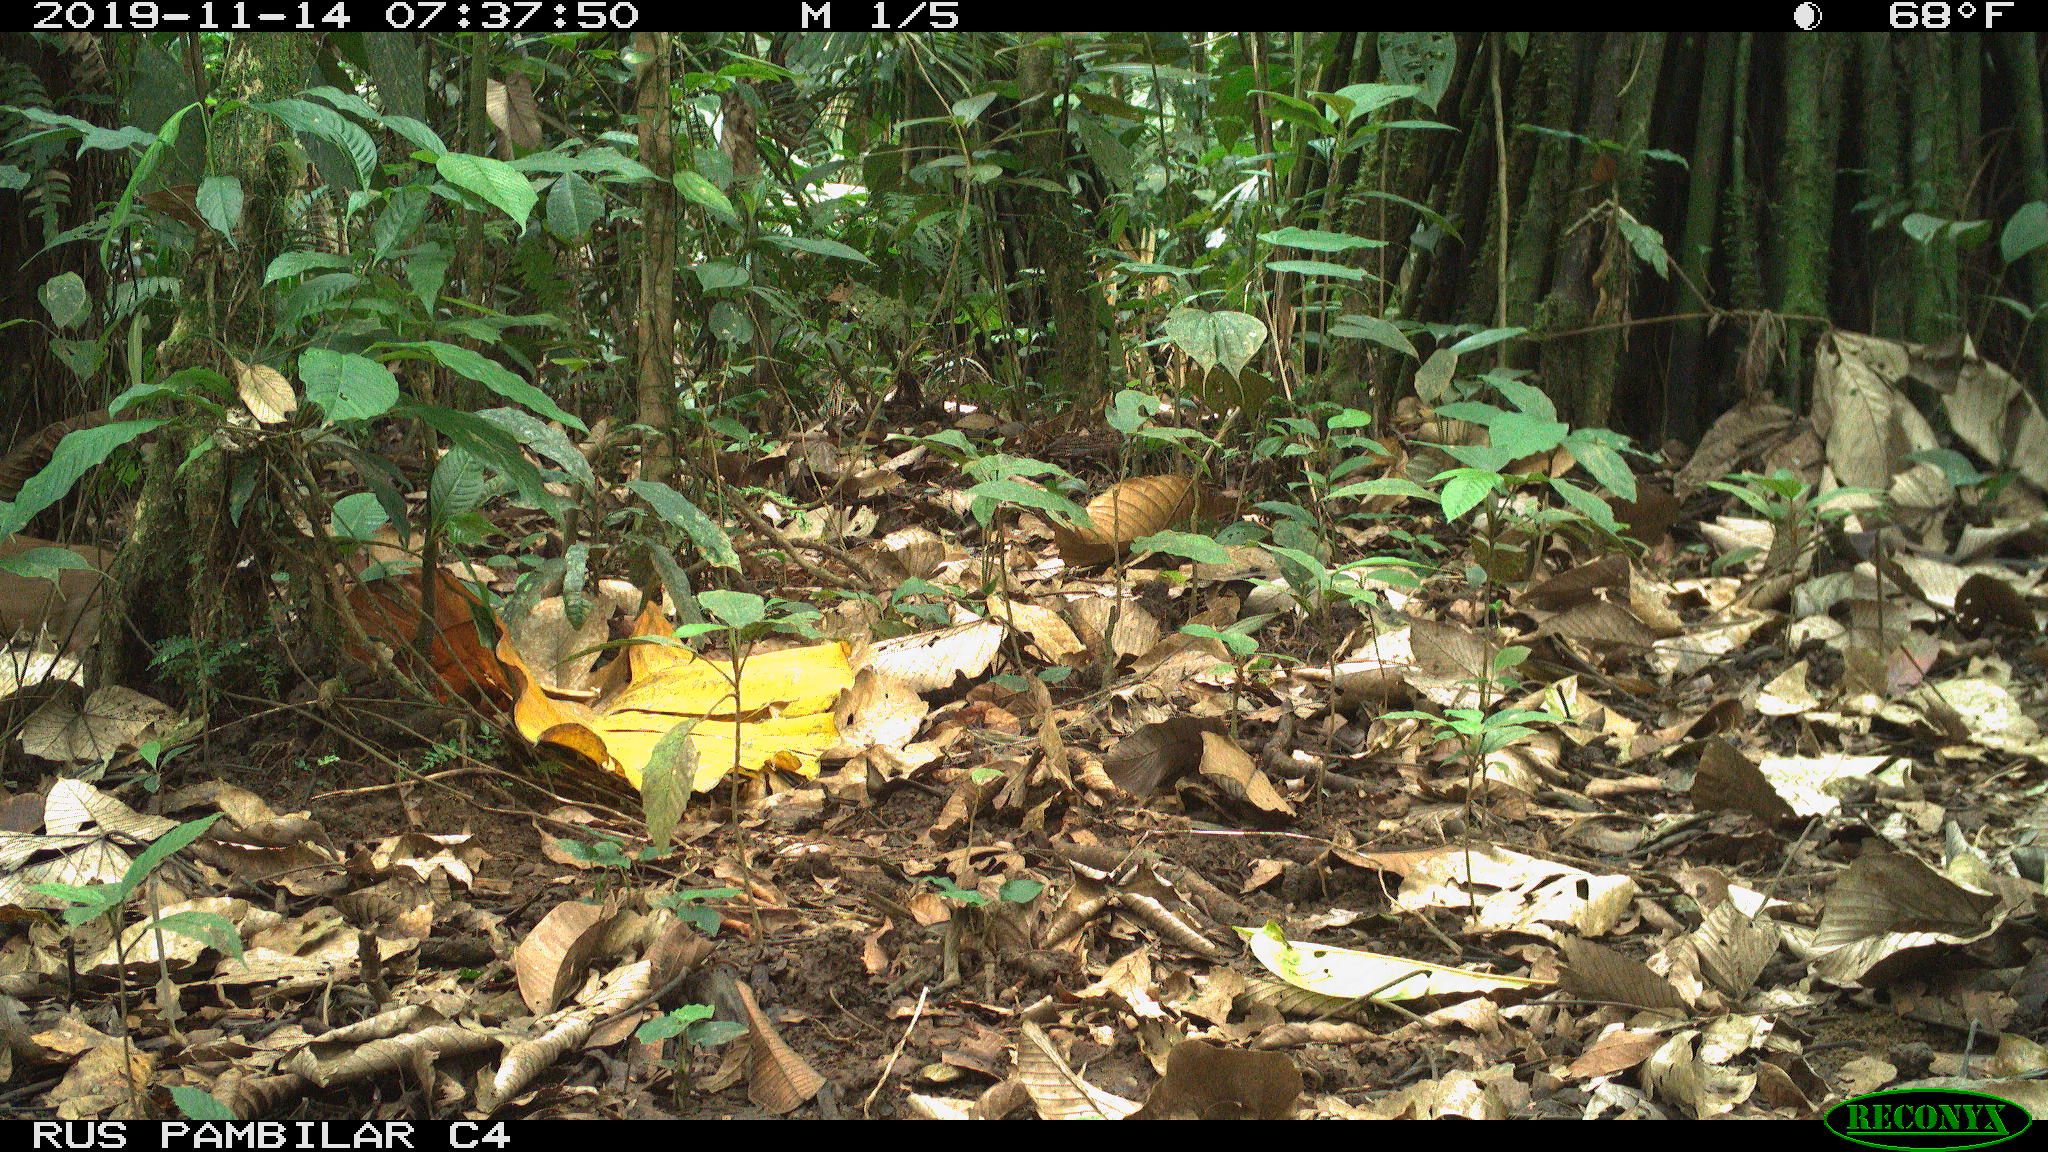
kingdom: Animalia
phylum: Chordata
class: Mammalia
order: Rodentia
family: Dasyproctidae
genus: Dasyprocta
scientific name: Dasyprocta punctata
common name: Central american agouti
